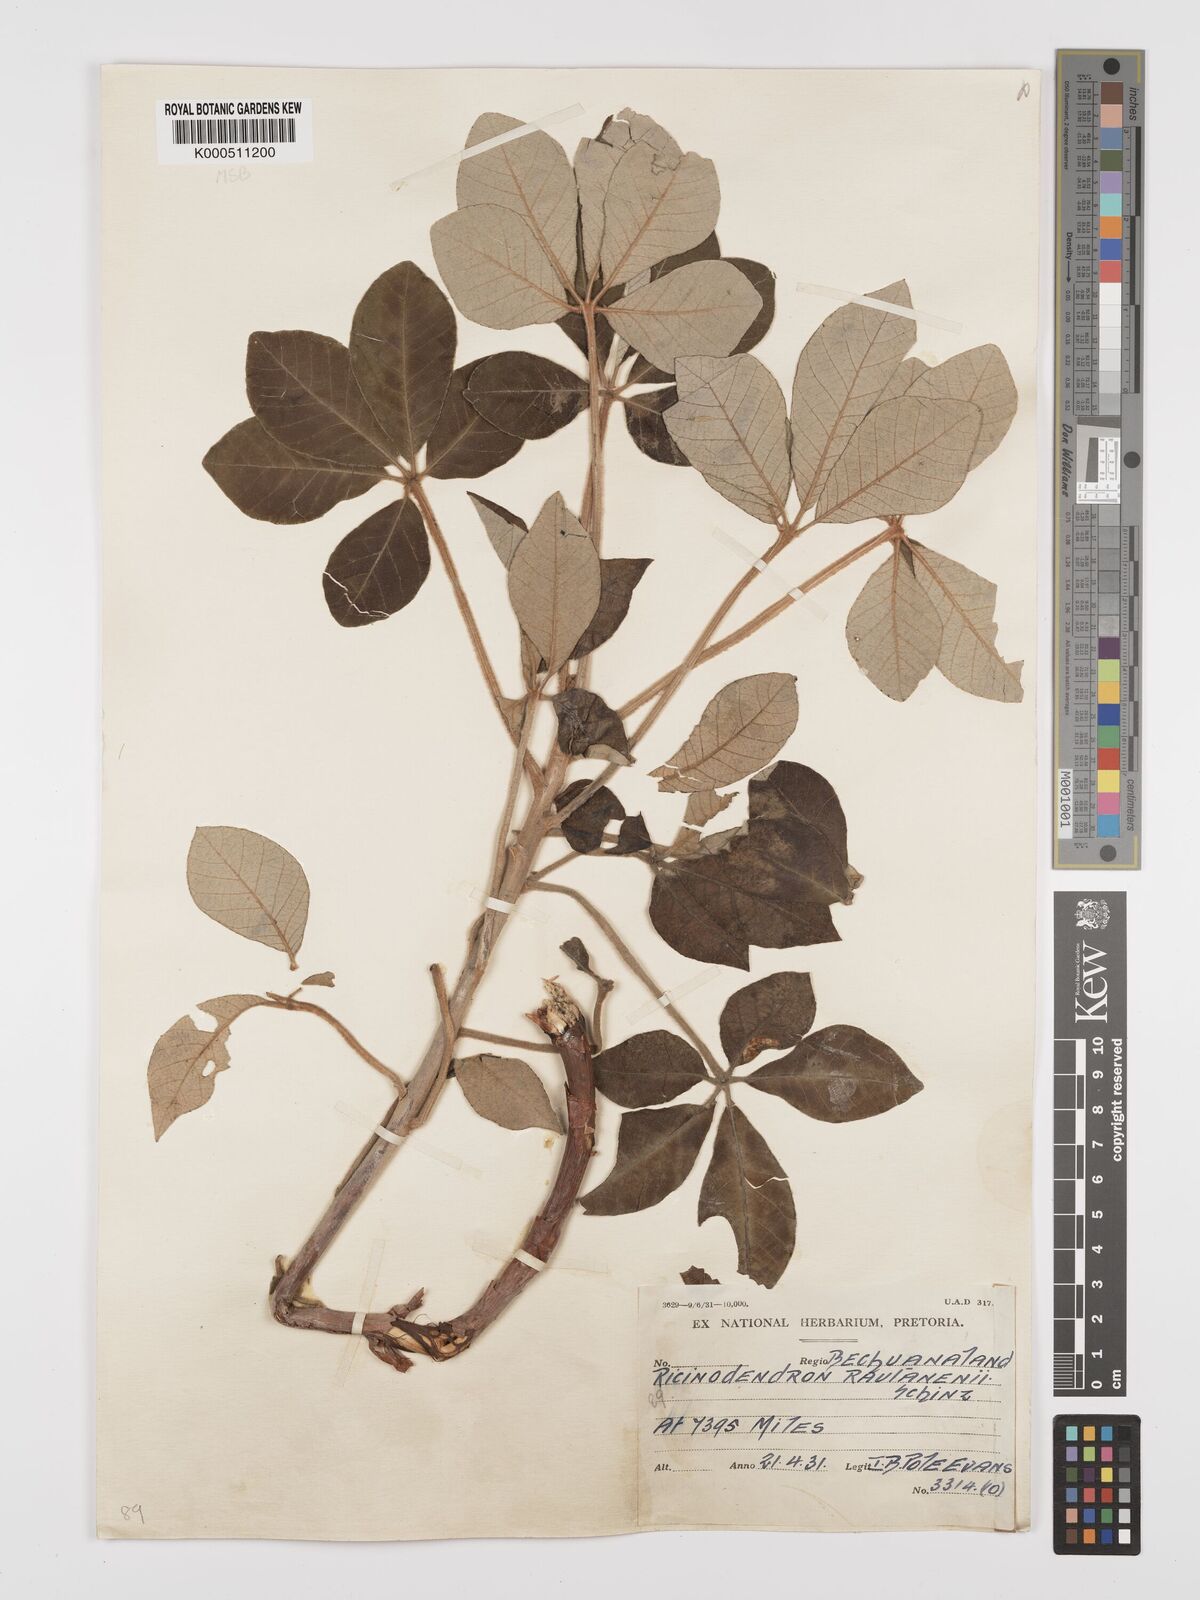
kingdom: Plantae
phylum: Tracheophyta
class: Magnoliopsida
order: Malpighiales
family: Euphorbiaceae
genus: Schinziophyton
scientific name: Schinziophyton rautanenii
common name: Manketti
